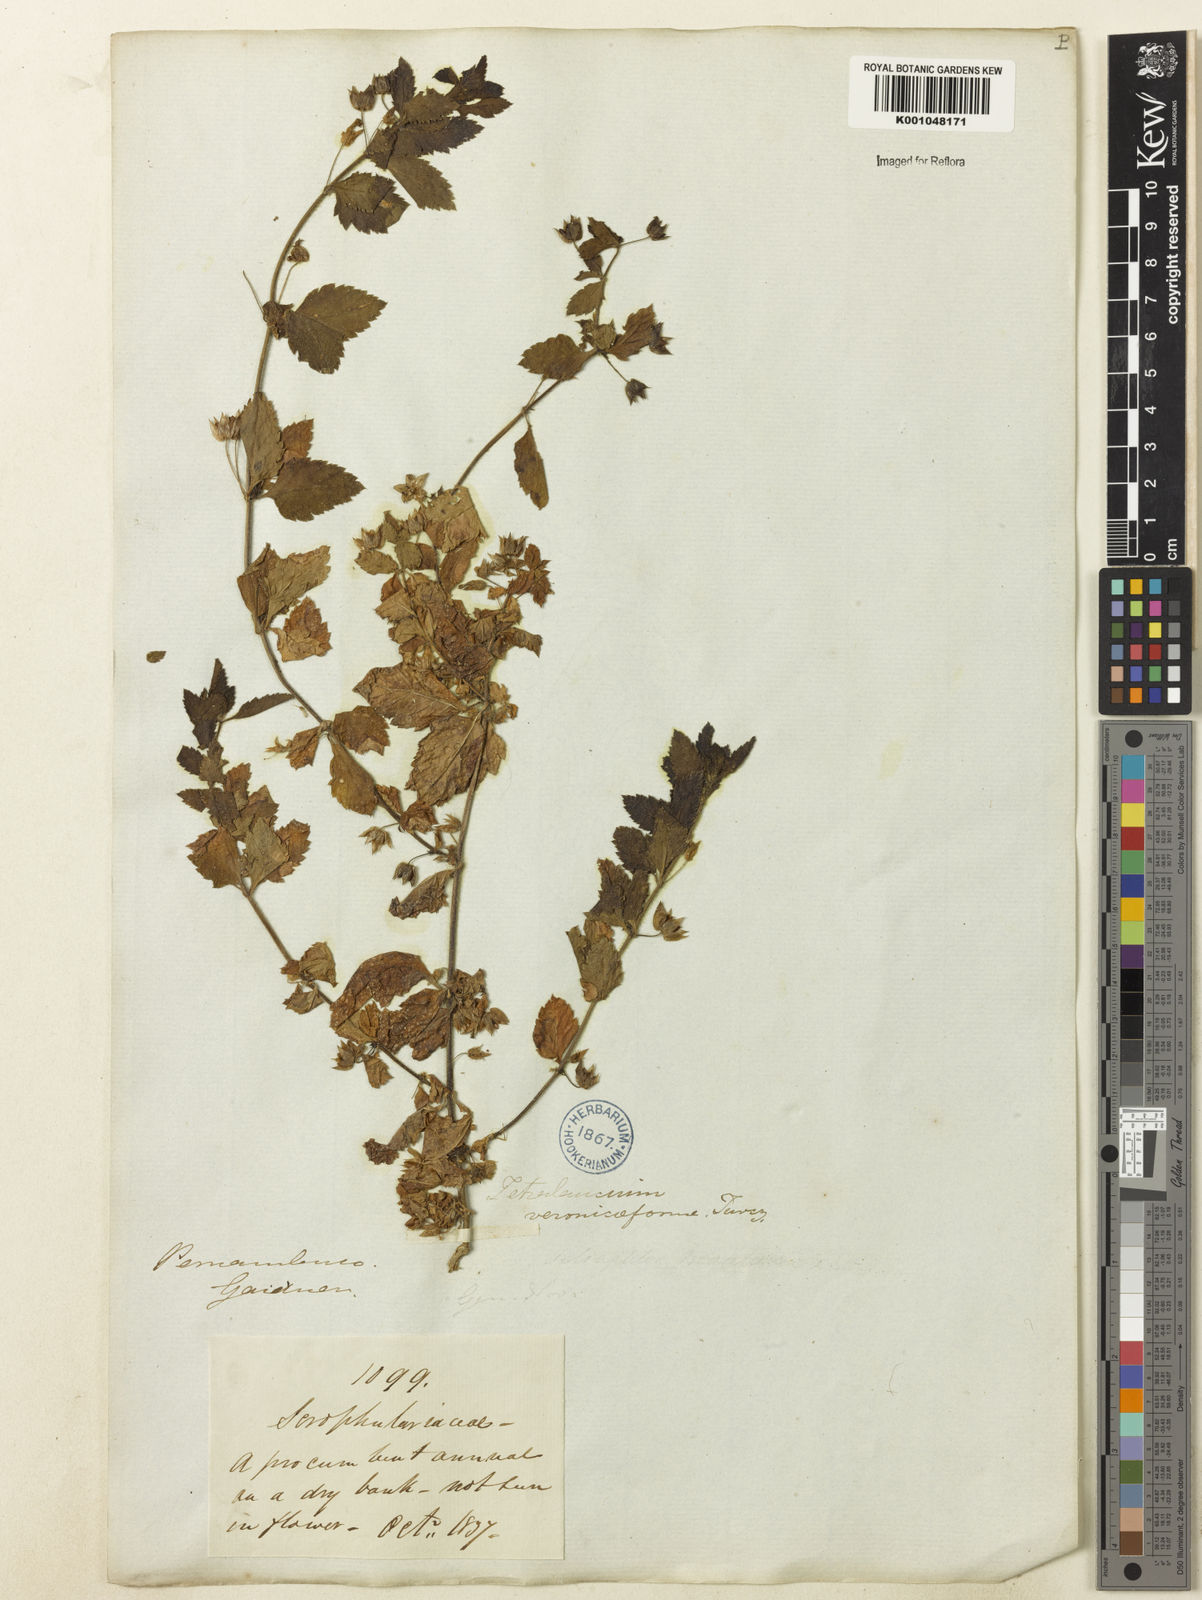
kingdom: Plantae
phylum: Tracheophyta
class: Magnoliopsida
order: Lamiales
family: Plantaginaceae
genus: Tetraulacium
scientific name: Tetraulacium veroniciforme
